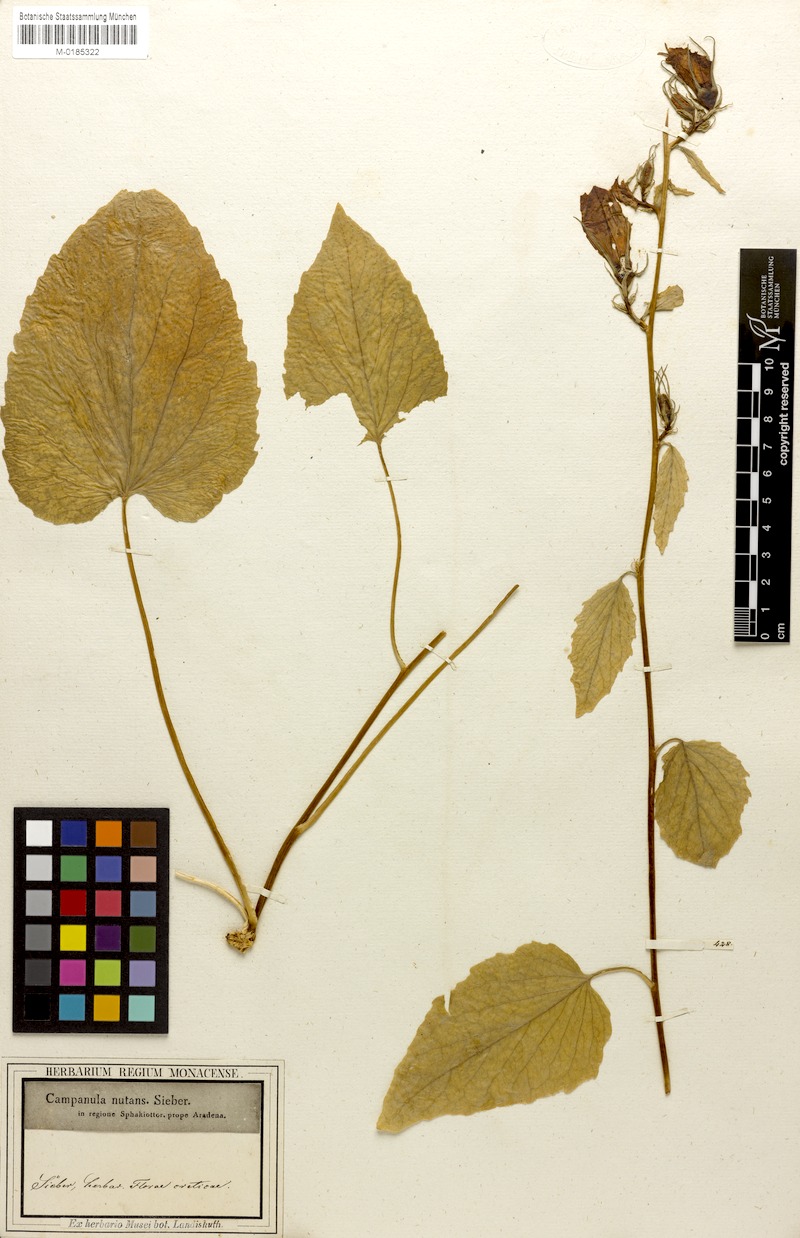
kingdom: Plantae
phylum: Tracheophyta
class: Magnoliopsida
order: Asterales
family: Campanulaceae
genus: Campanula
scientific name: Campanula cretica
